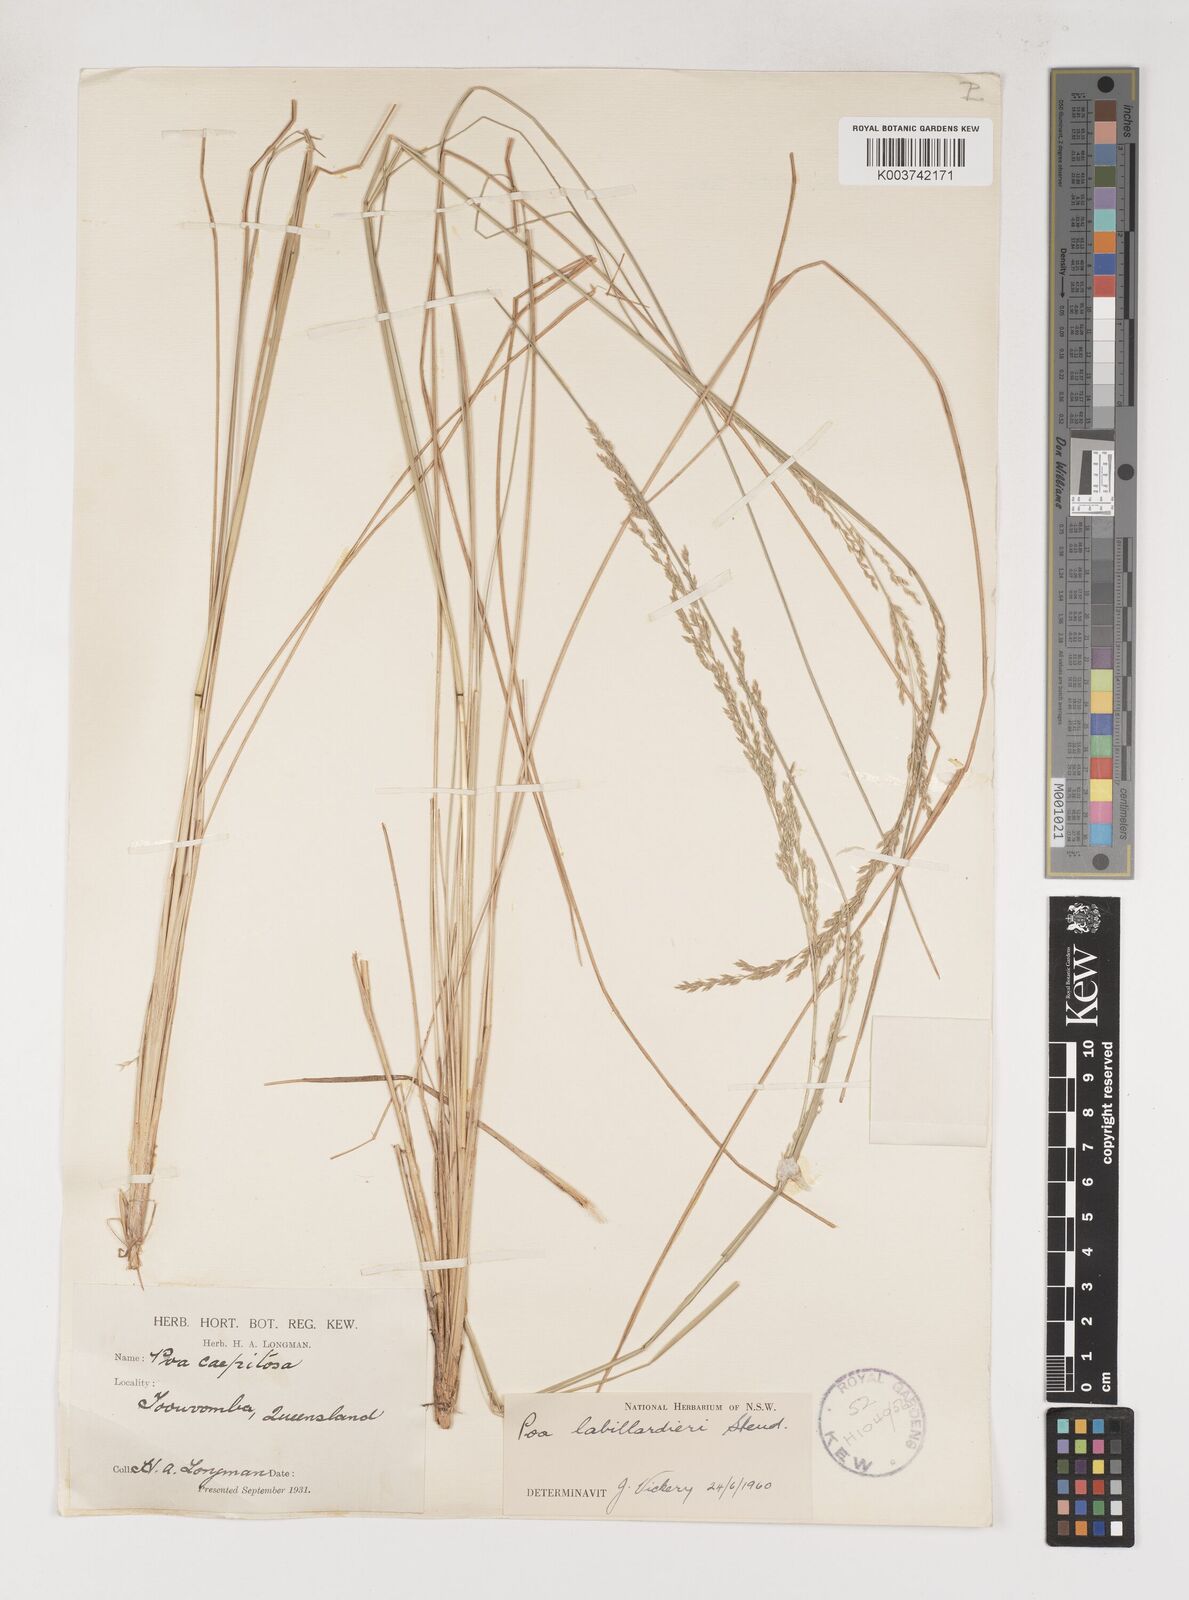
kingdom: Plantae
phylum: Tracheophyta
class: Liliopsida
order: Poales
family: Poaceae
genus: Poa
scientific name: Poa labillardierei
